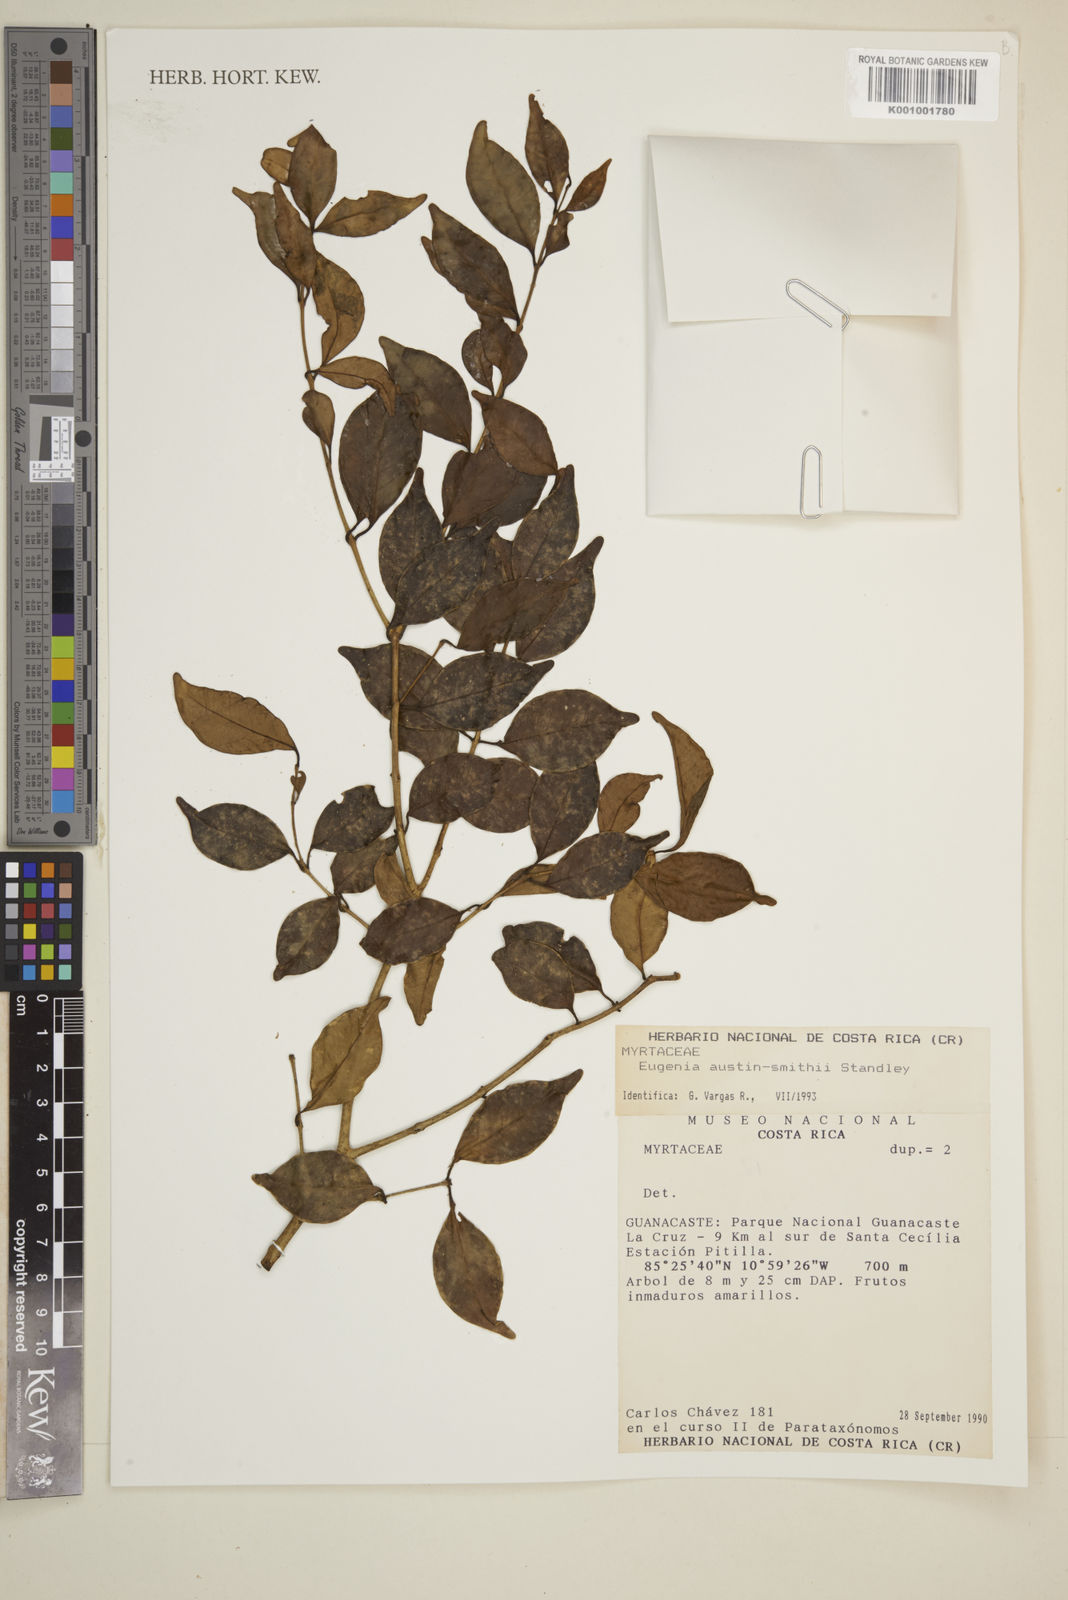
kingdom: Plantae
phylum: Tracheophyta
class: Magnoliopsida
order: Myrtales
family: Myrtaceae
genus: Eugenia
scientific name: Eugenia austin-smithii
